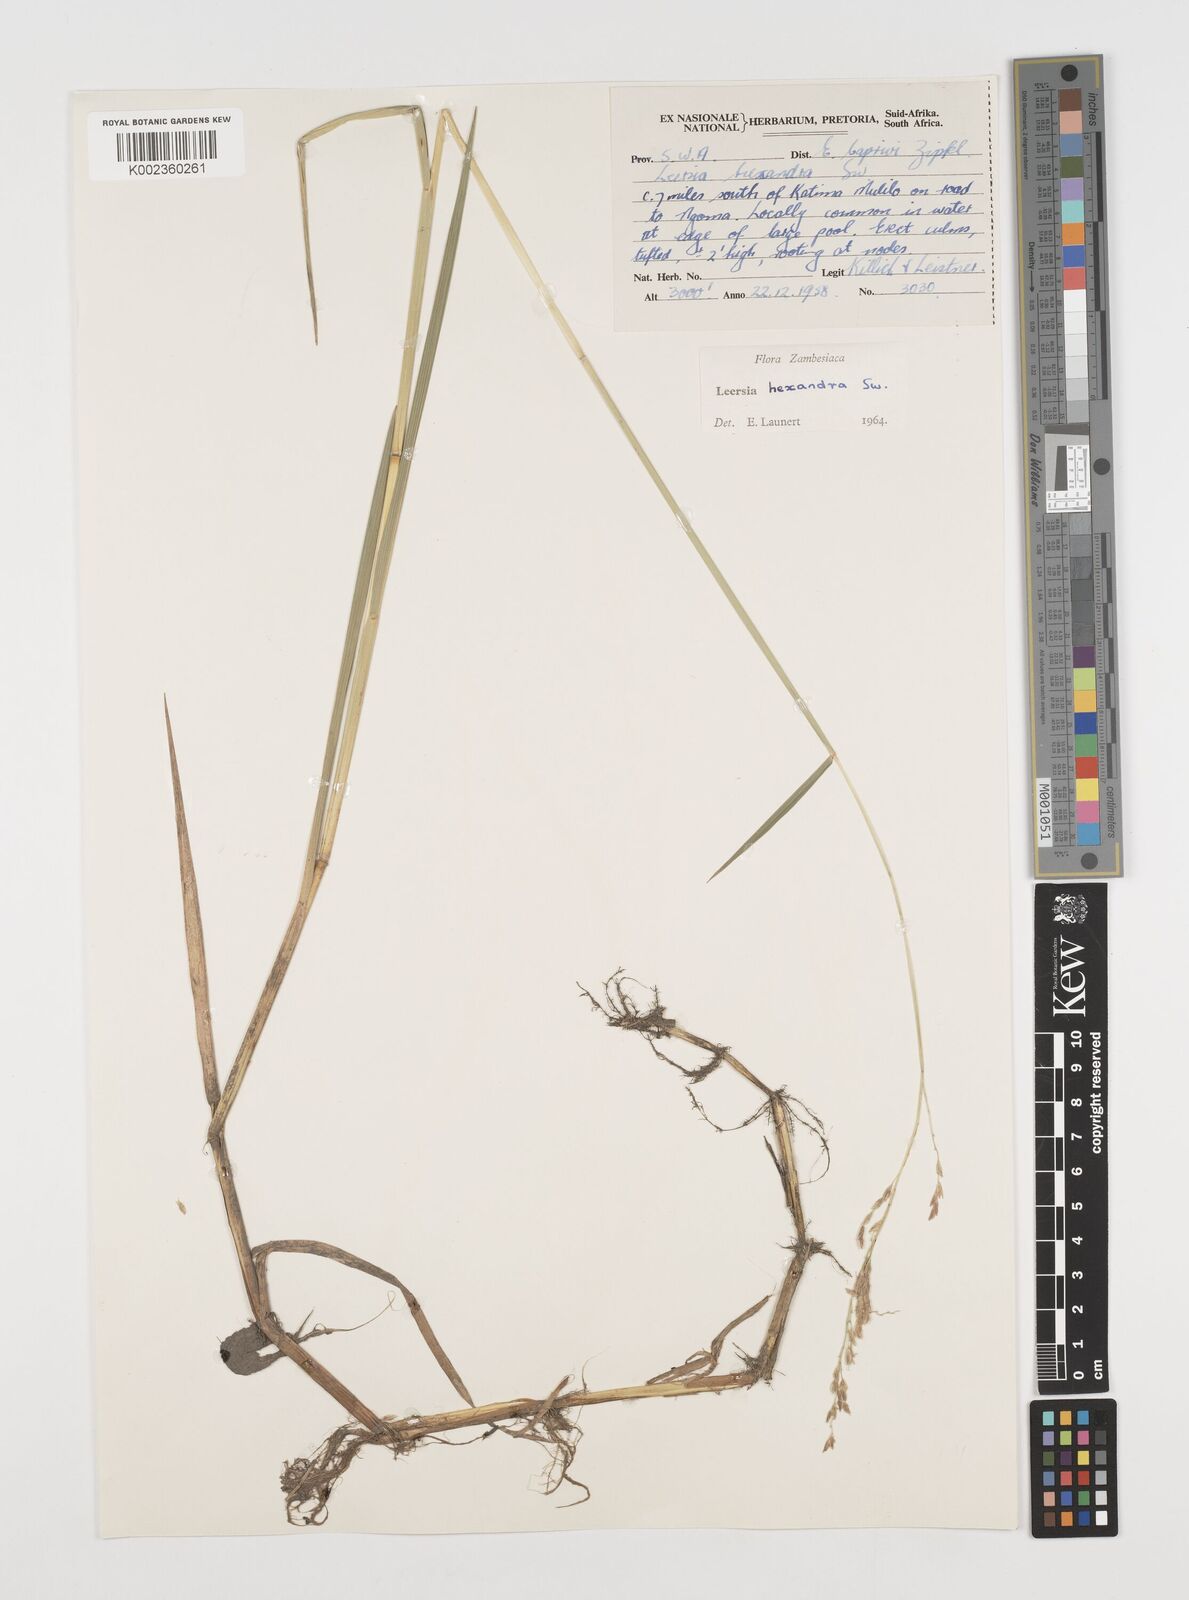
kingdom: Plantae
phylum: Tracheophyta
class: Liliopsida
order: Poales
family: Poaceae
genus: Leersia
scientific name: Leersia hexandra
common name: Southern cut grass
